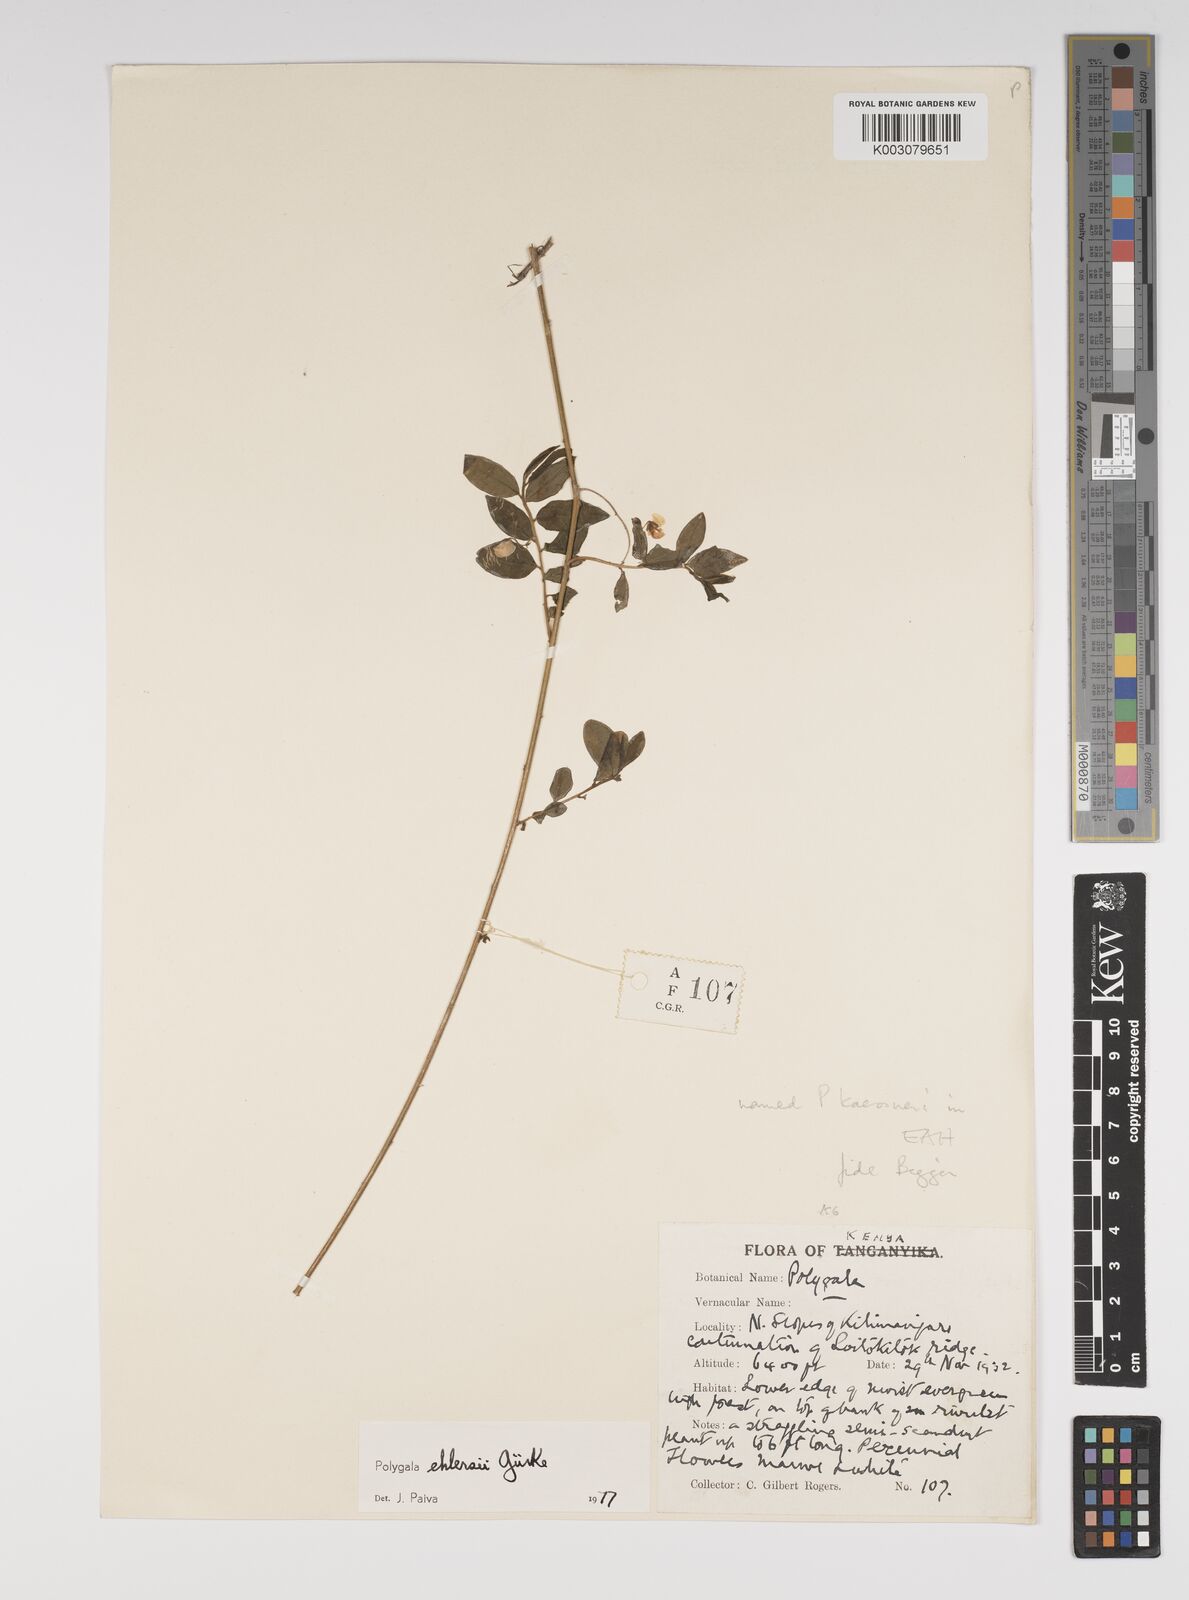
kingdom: Plantae
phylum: Tracheophyta
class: Magnoliopsida
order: Fabales
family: Polygalaceae
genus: Polygala
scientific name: Polygala ehlersii
